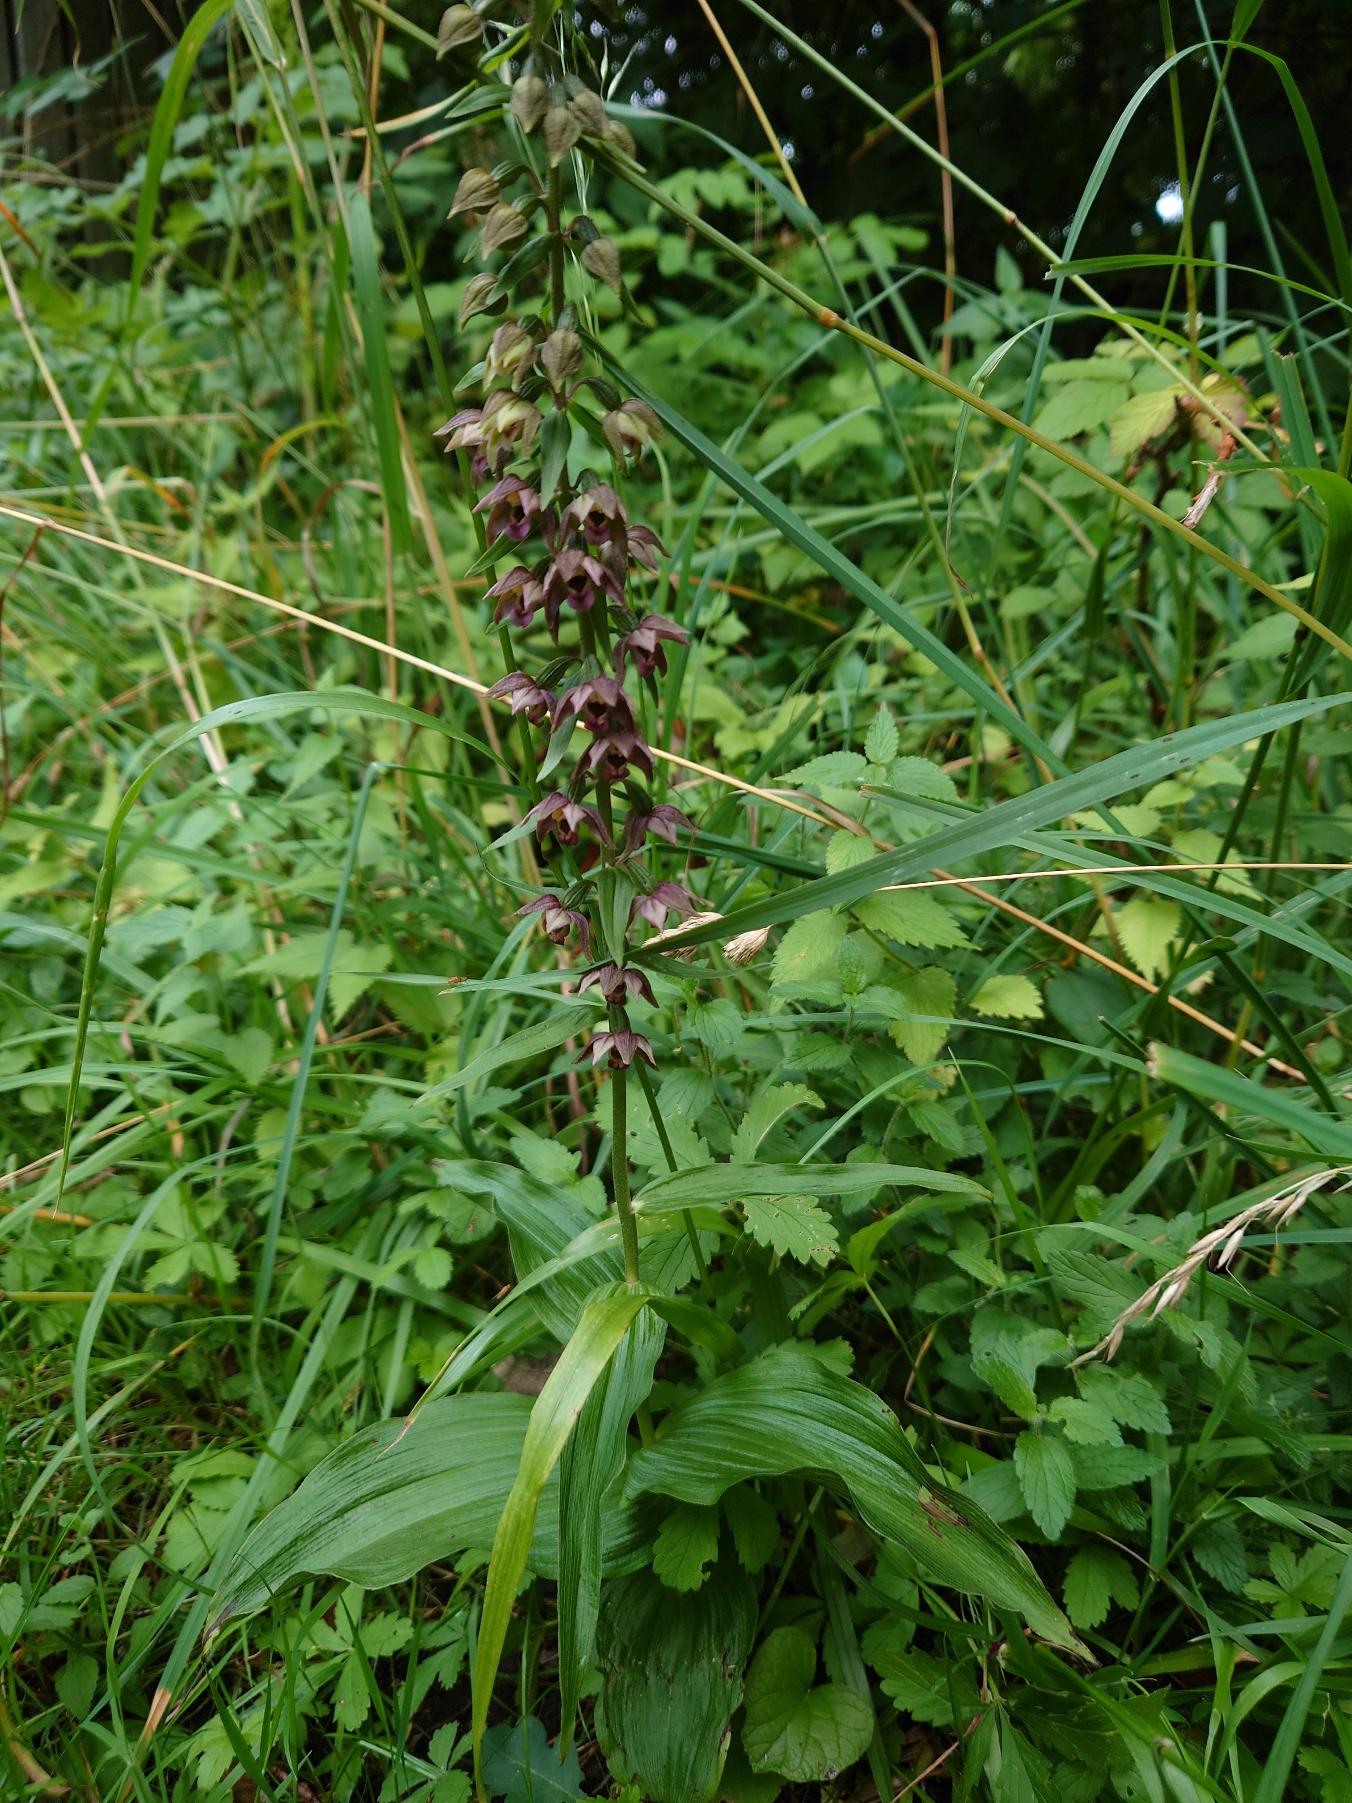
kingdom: Plantae
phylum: Tracheophyta
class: Liliopsida
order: Asparagales
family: Orchidaceae
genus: Epipactis
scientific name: Epipactis helleborine
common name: Skov-hullæbe
